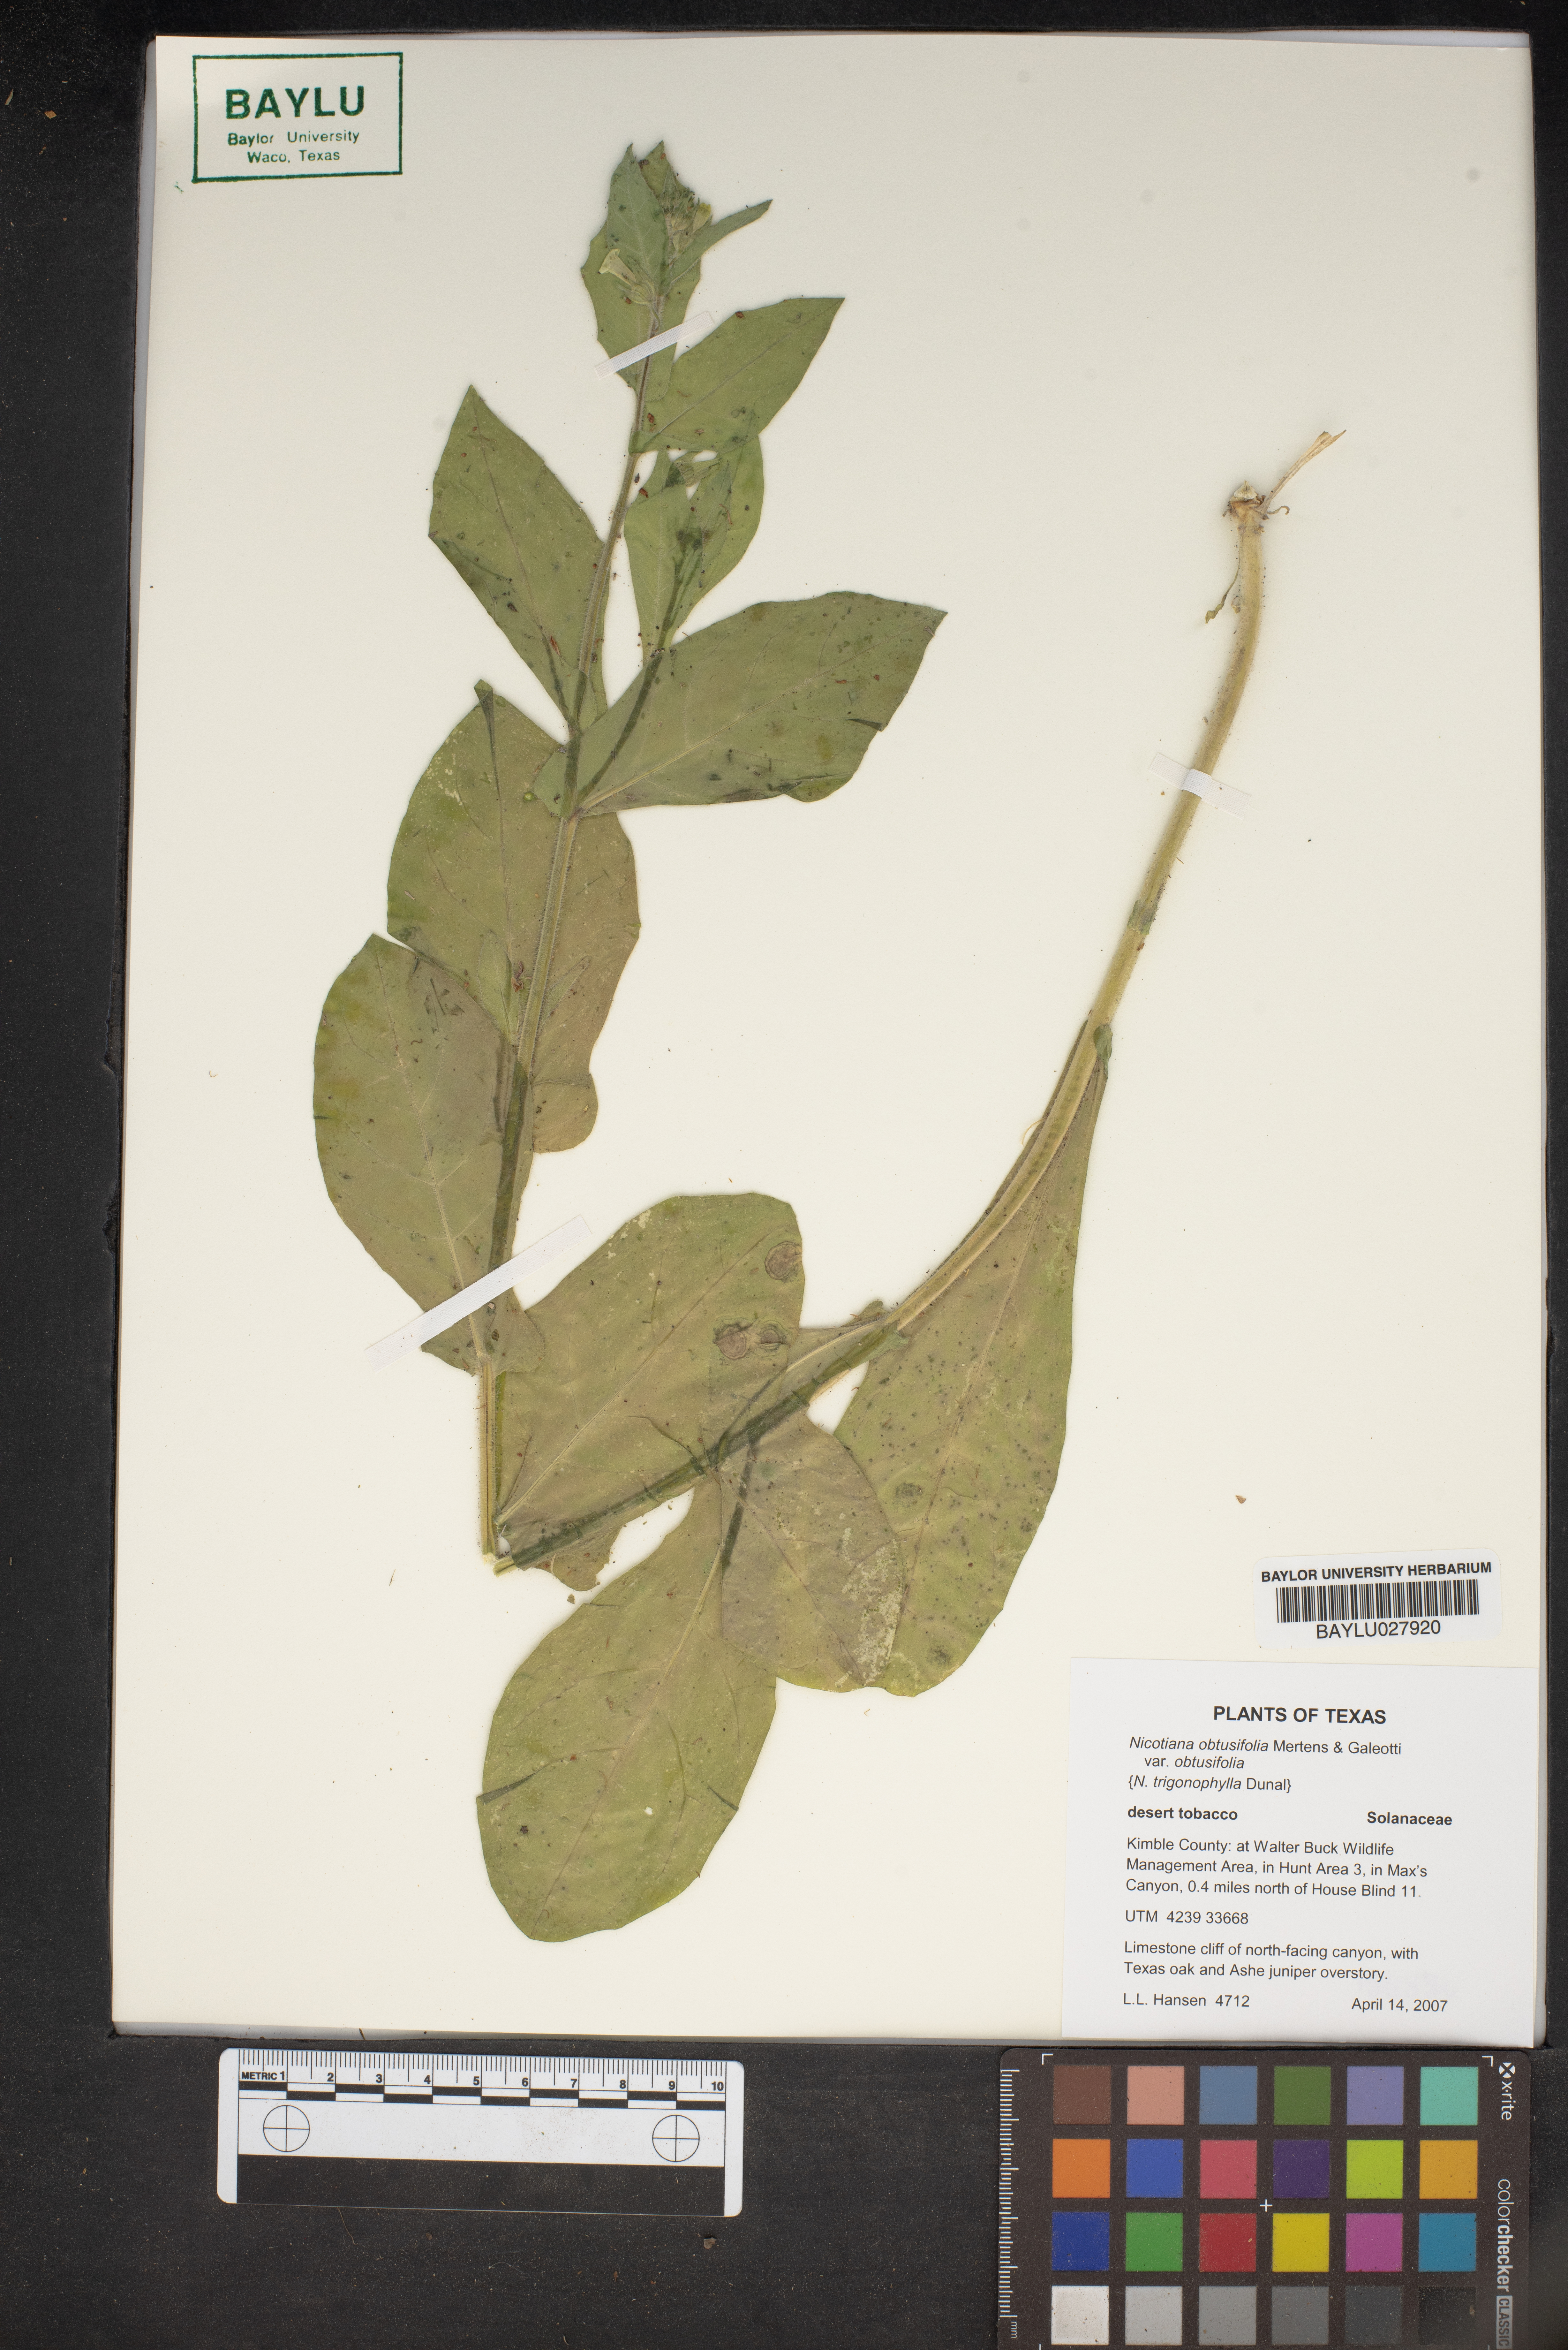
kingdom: Plantae
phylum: Tracheophyta
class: Magnoliopsida
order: Solanales
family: Solanaceae
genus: Nicotiana
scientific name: Nicotiana obtusifolia
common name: Desert tobacco
